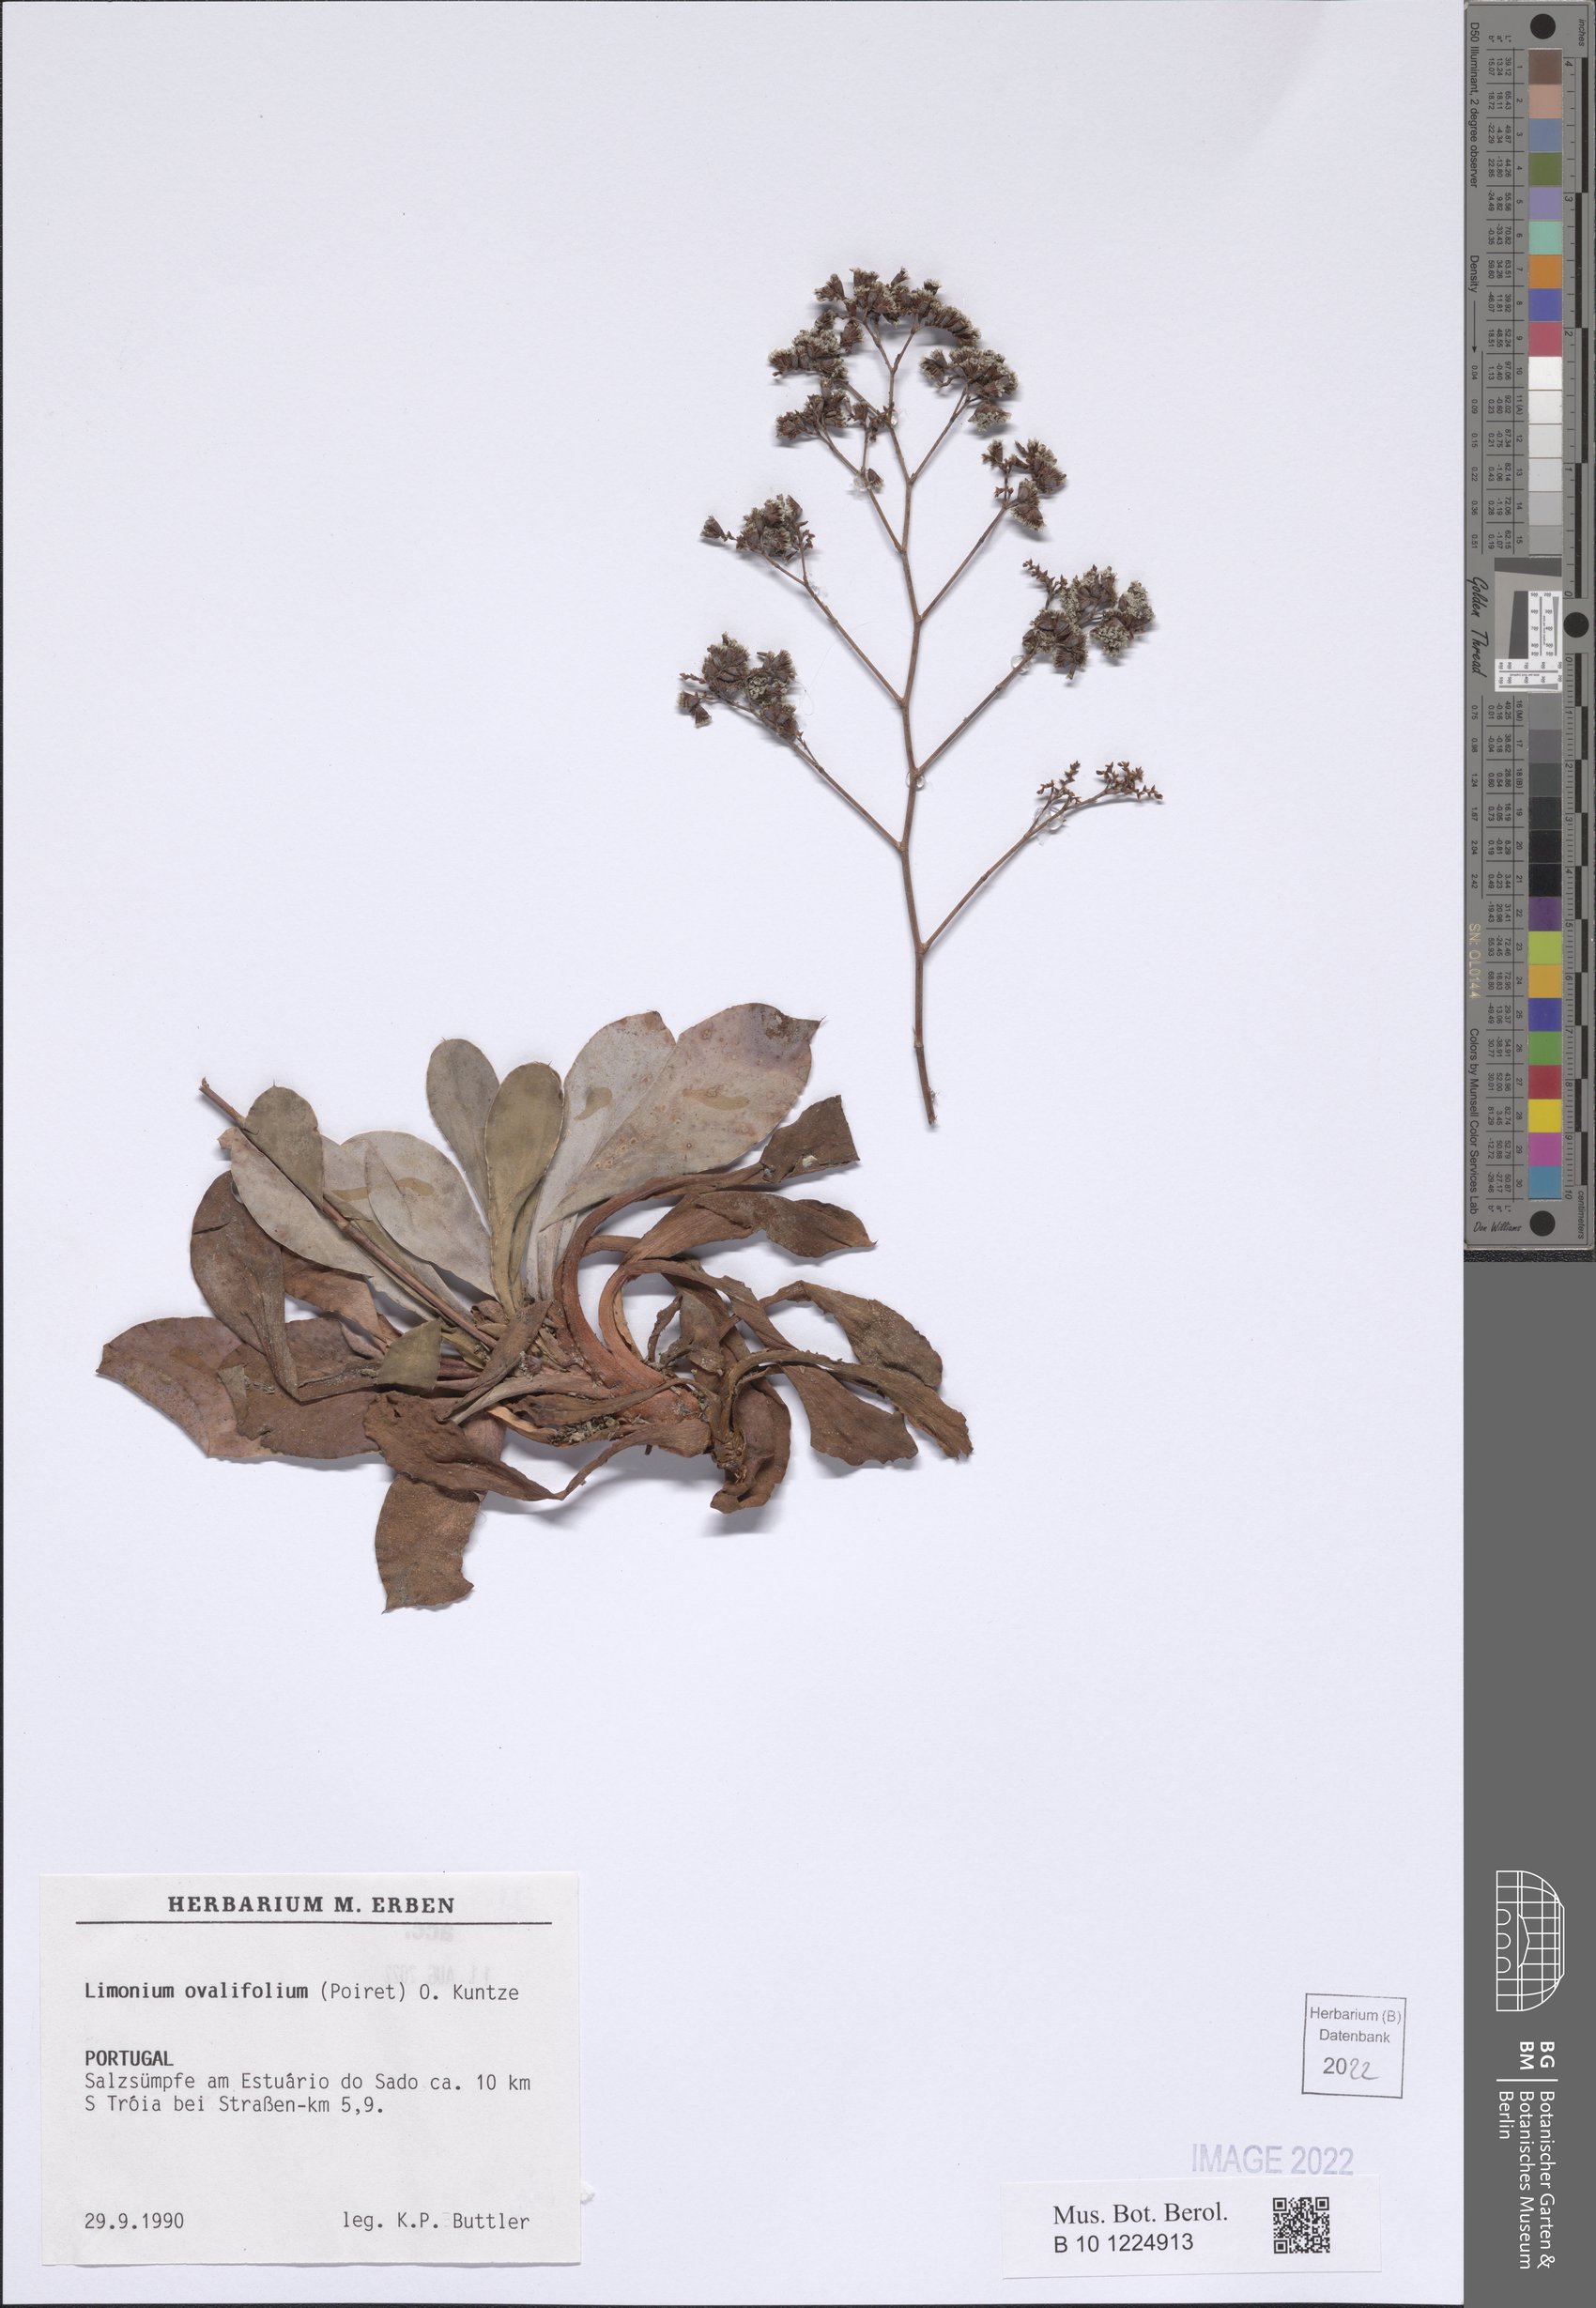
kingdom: Plantae
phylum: Tracheophyta
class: Magnoliopsida
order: Caryophyllales
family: Plumbaginaceae
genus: Limonium
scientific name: Limonium ovalifolium
